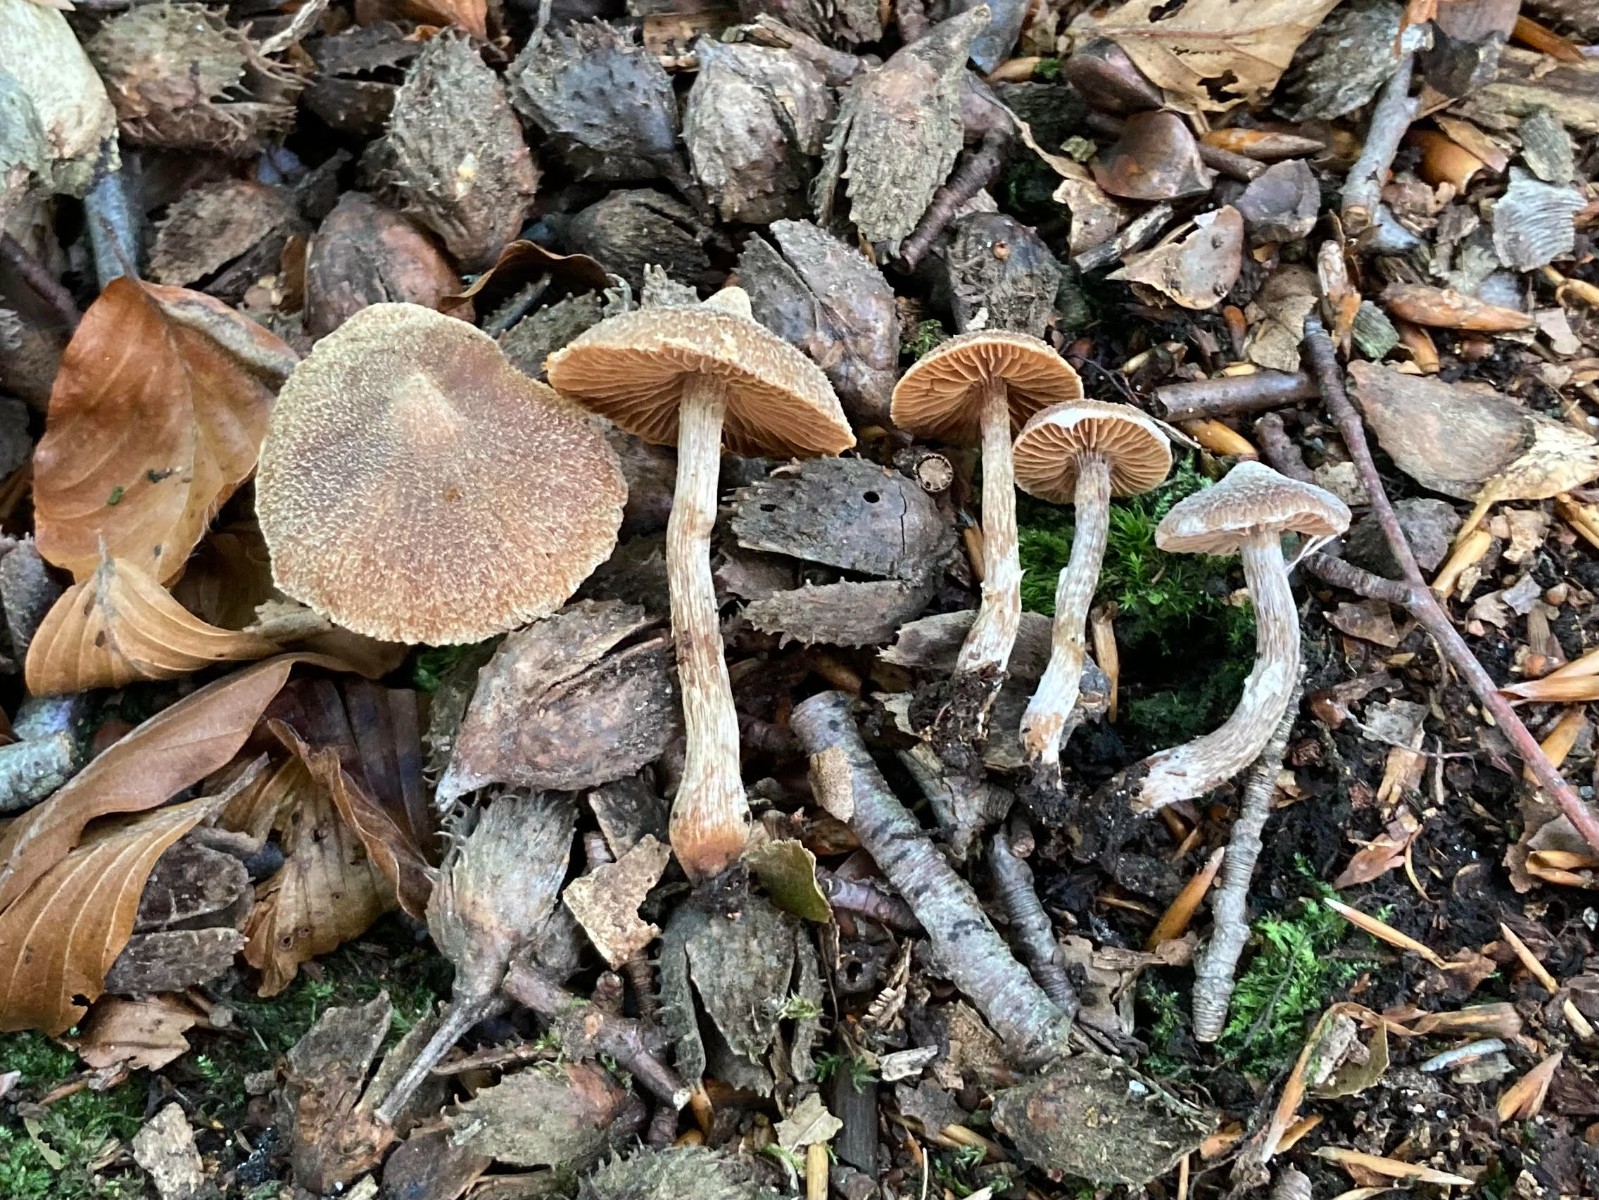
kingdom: Fungi
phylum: Basidiomycota
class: Agaricomycetes
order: Agaricales
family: Cortinariaceae
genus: Cortinarius
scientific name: Cortinarius flexipes
